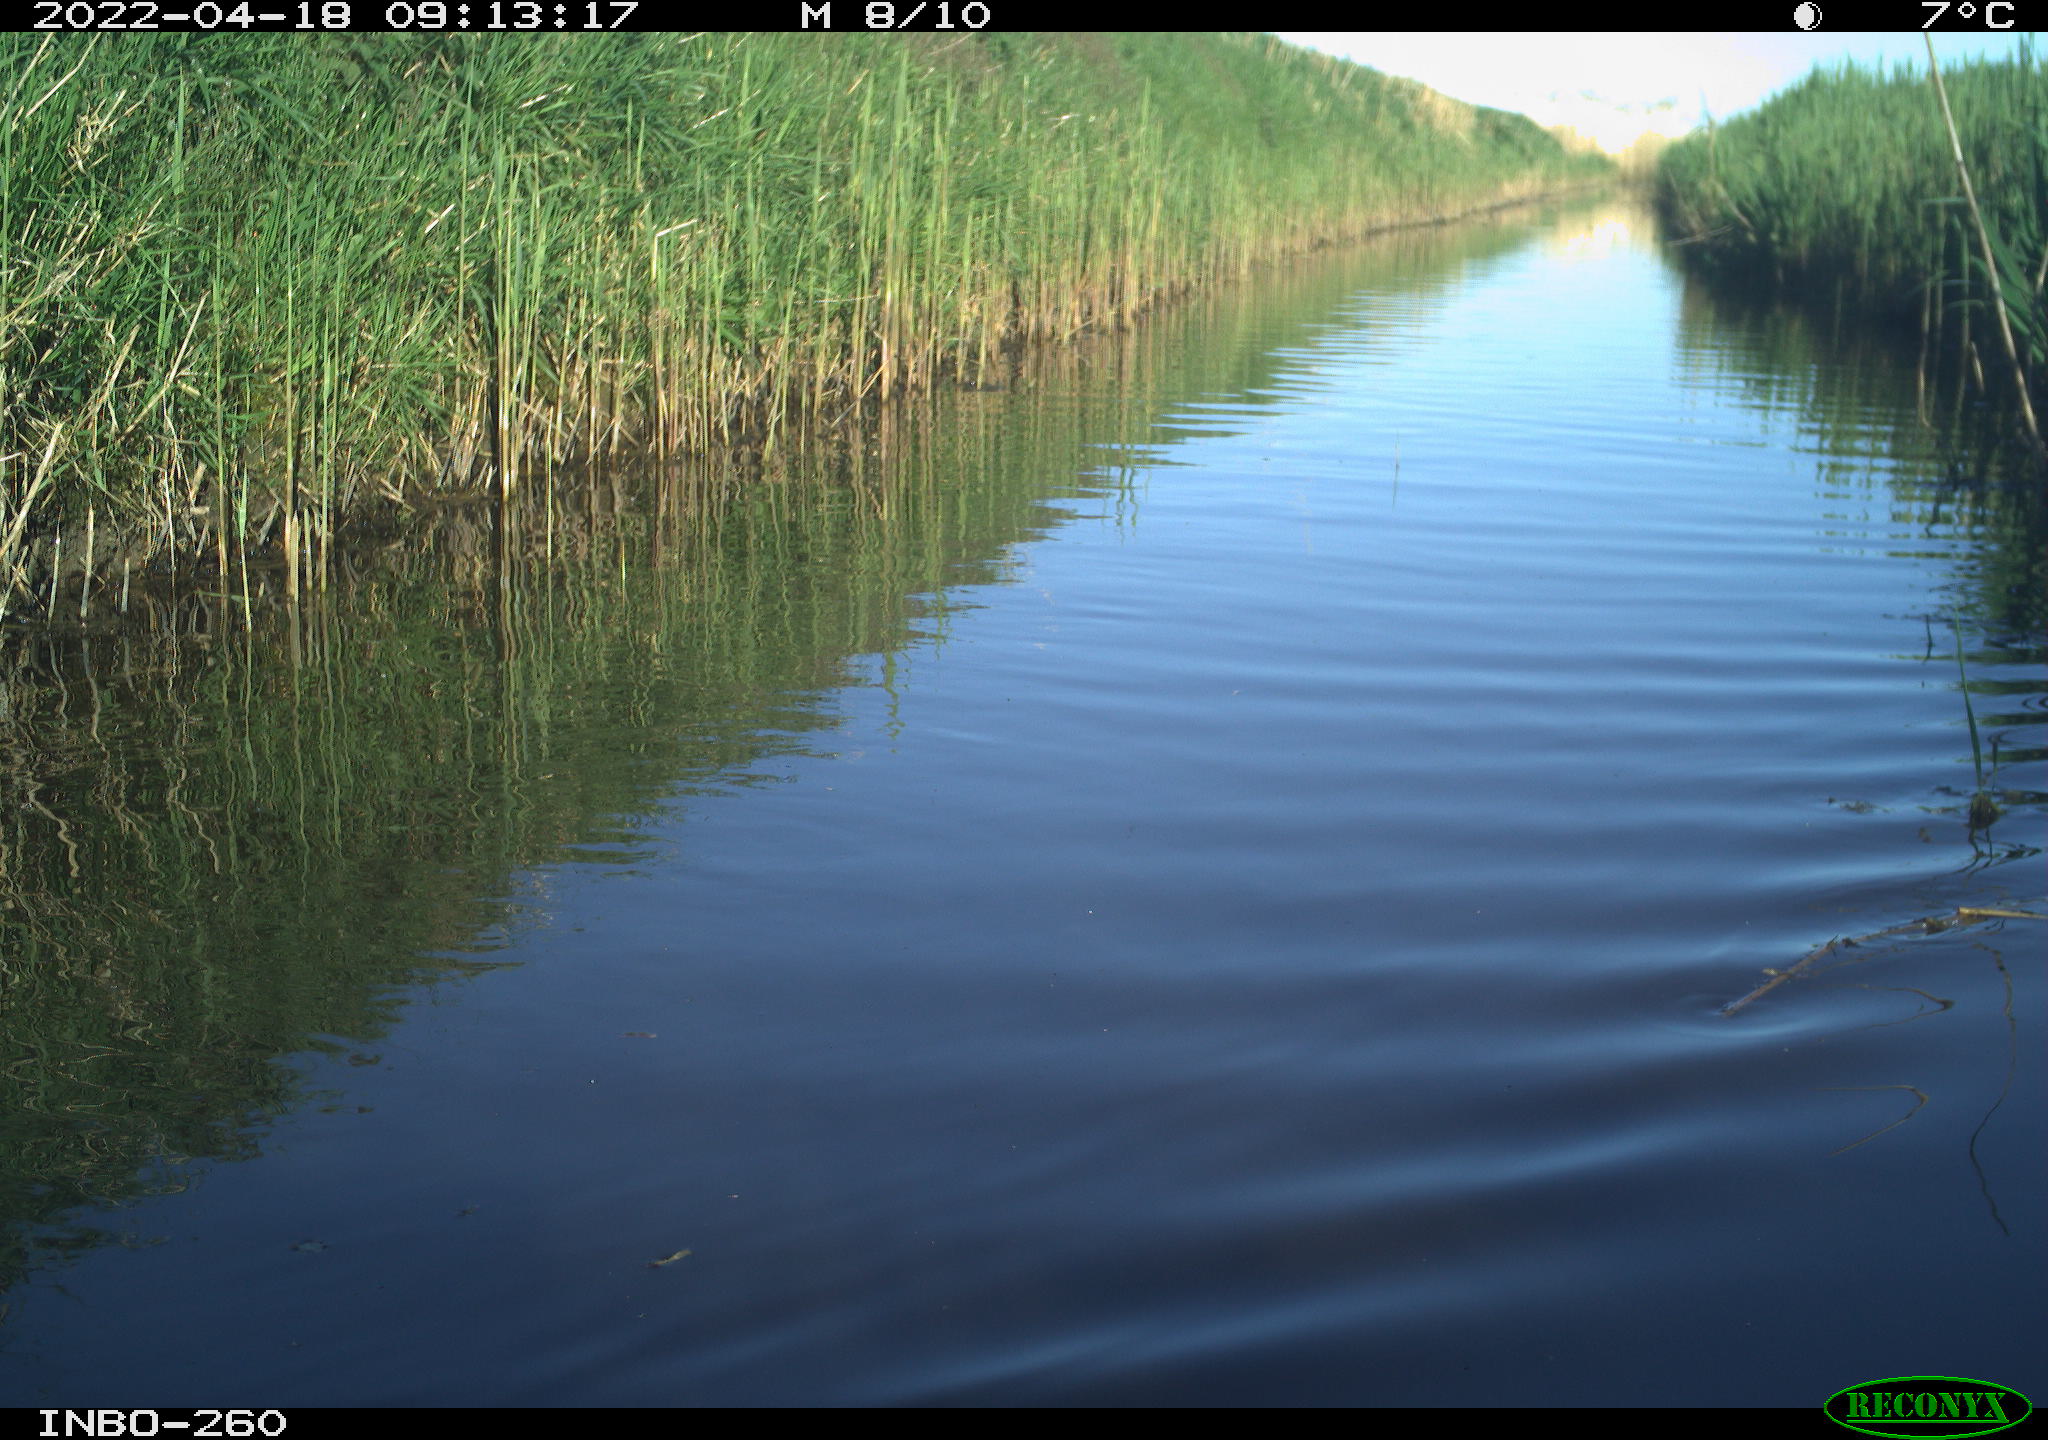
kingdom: Animalia
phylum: Chordata
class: Aves
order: Gruiformes
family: Rallidae
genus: Fulica
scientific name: Fulica atra
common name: Eurasian coot
